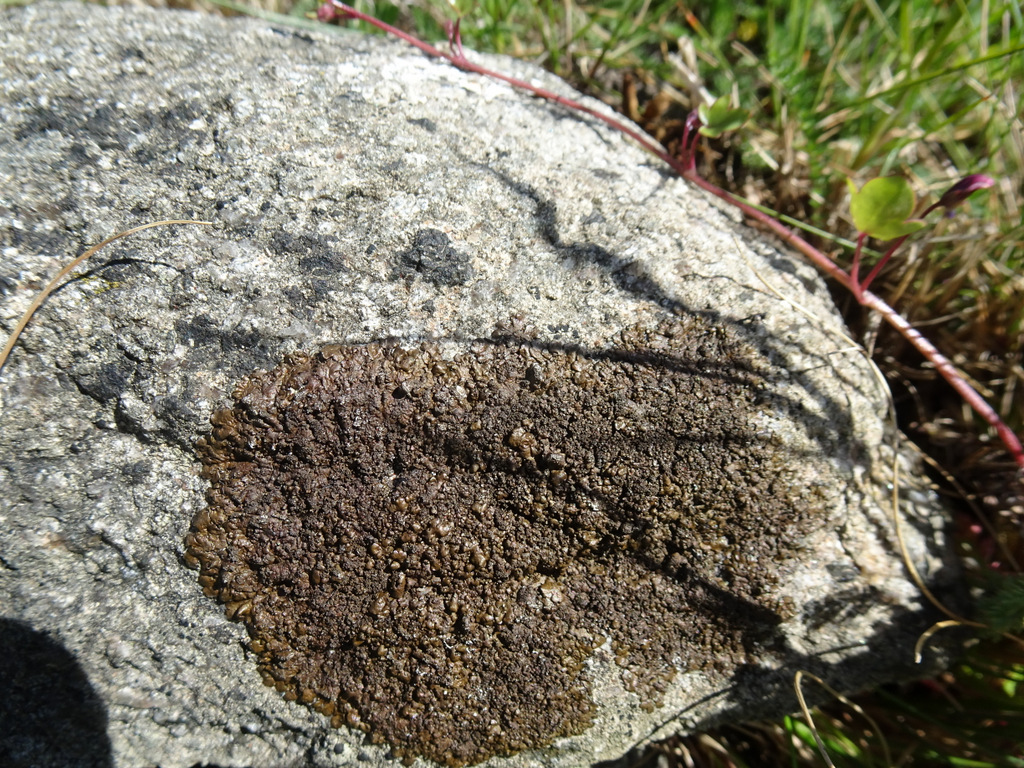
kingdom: Fungi
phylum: Ascomycota
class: Lecanoromycetes
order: Lecanorales
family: Parmeliaceae
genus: Xanthoparmelia
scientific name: Xanthoparmelia verruculifera
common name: småknoppet skållav
